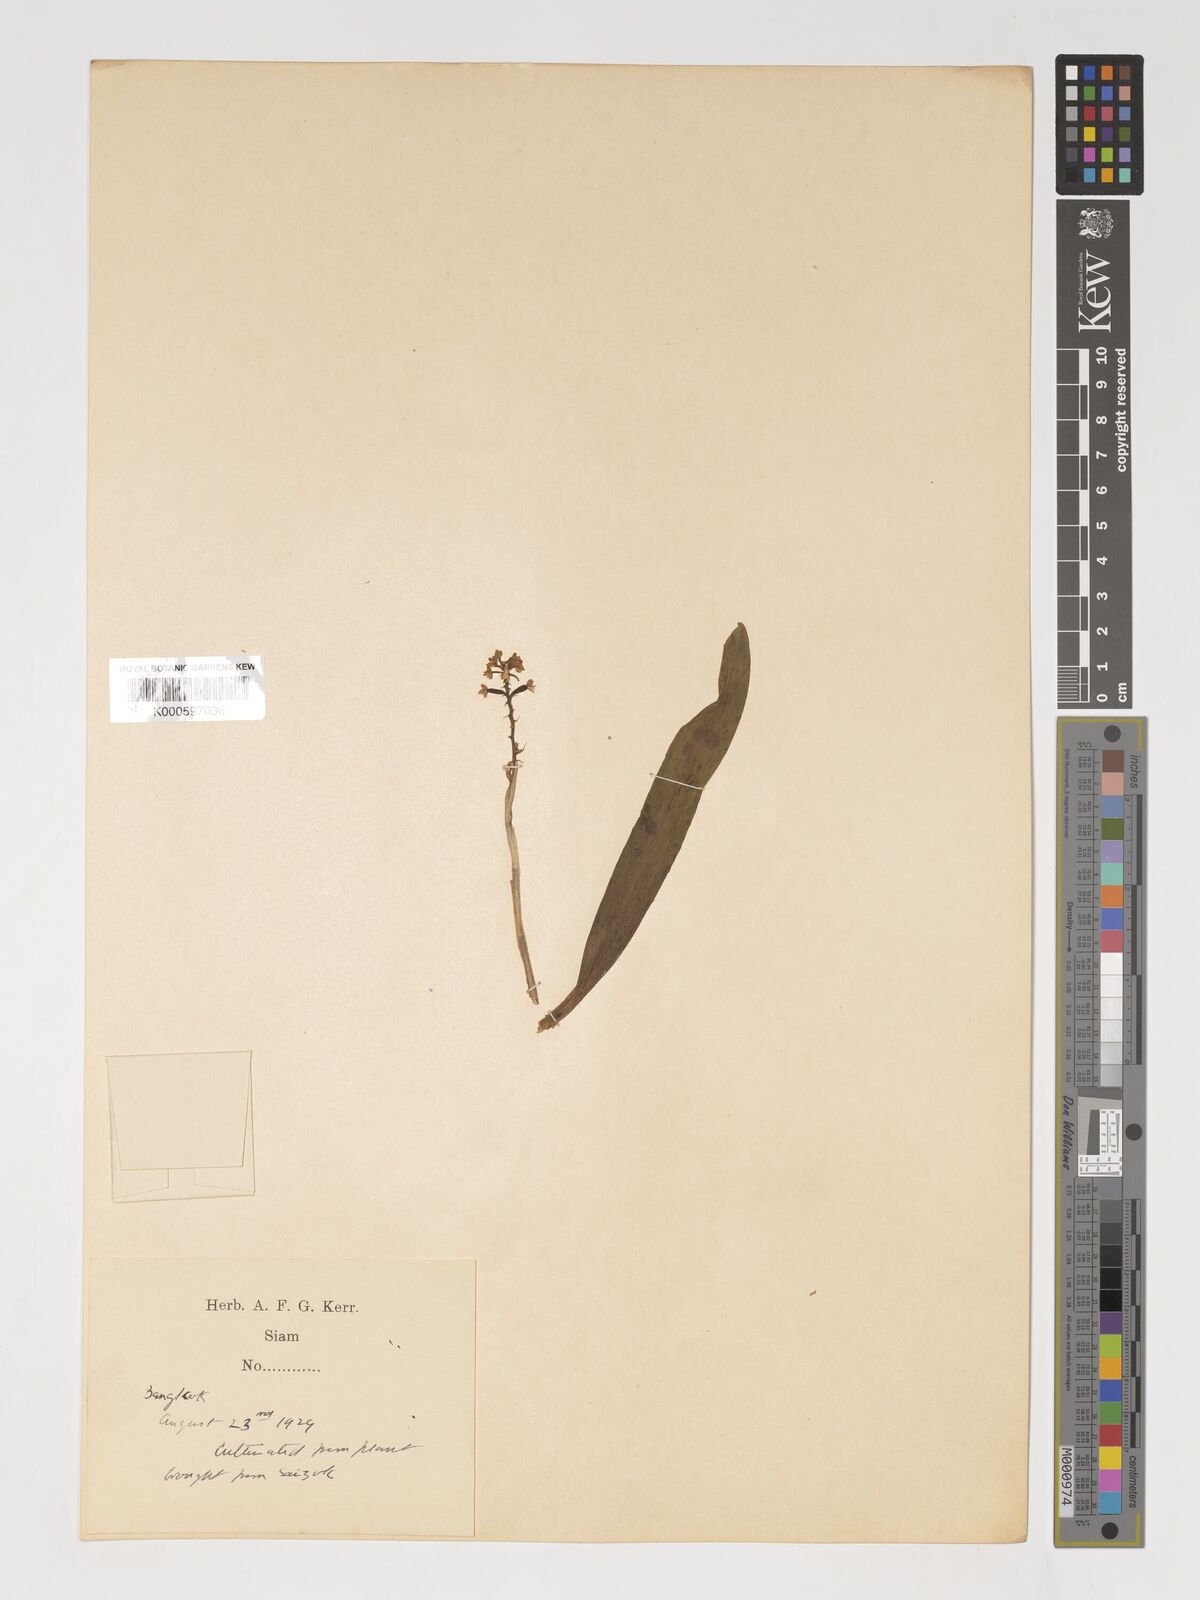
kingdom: Plantae
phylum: Tracheophyta
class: Liliopsida
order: Asparagales
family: Orchidaceae
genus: Polystachya
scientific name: Polystachya concreta
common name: Greater yellowspike orchid
